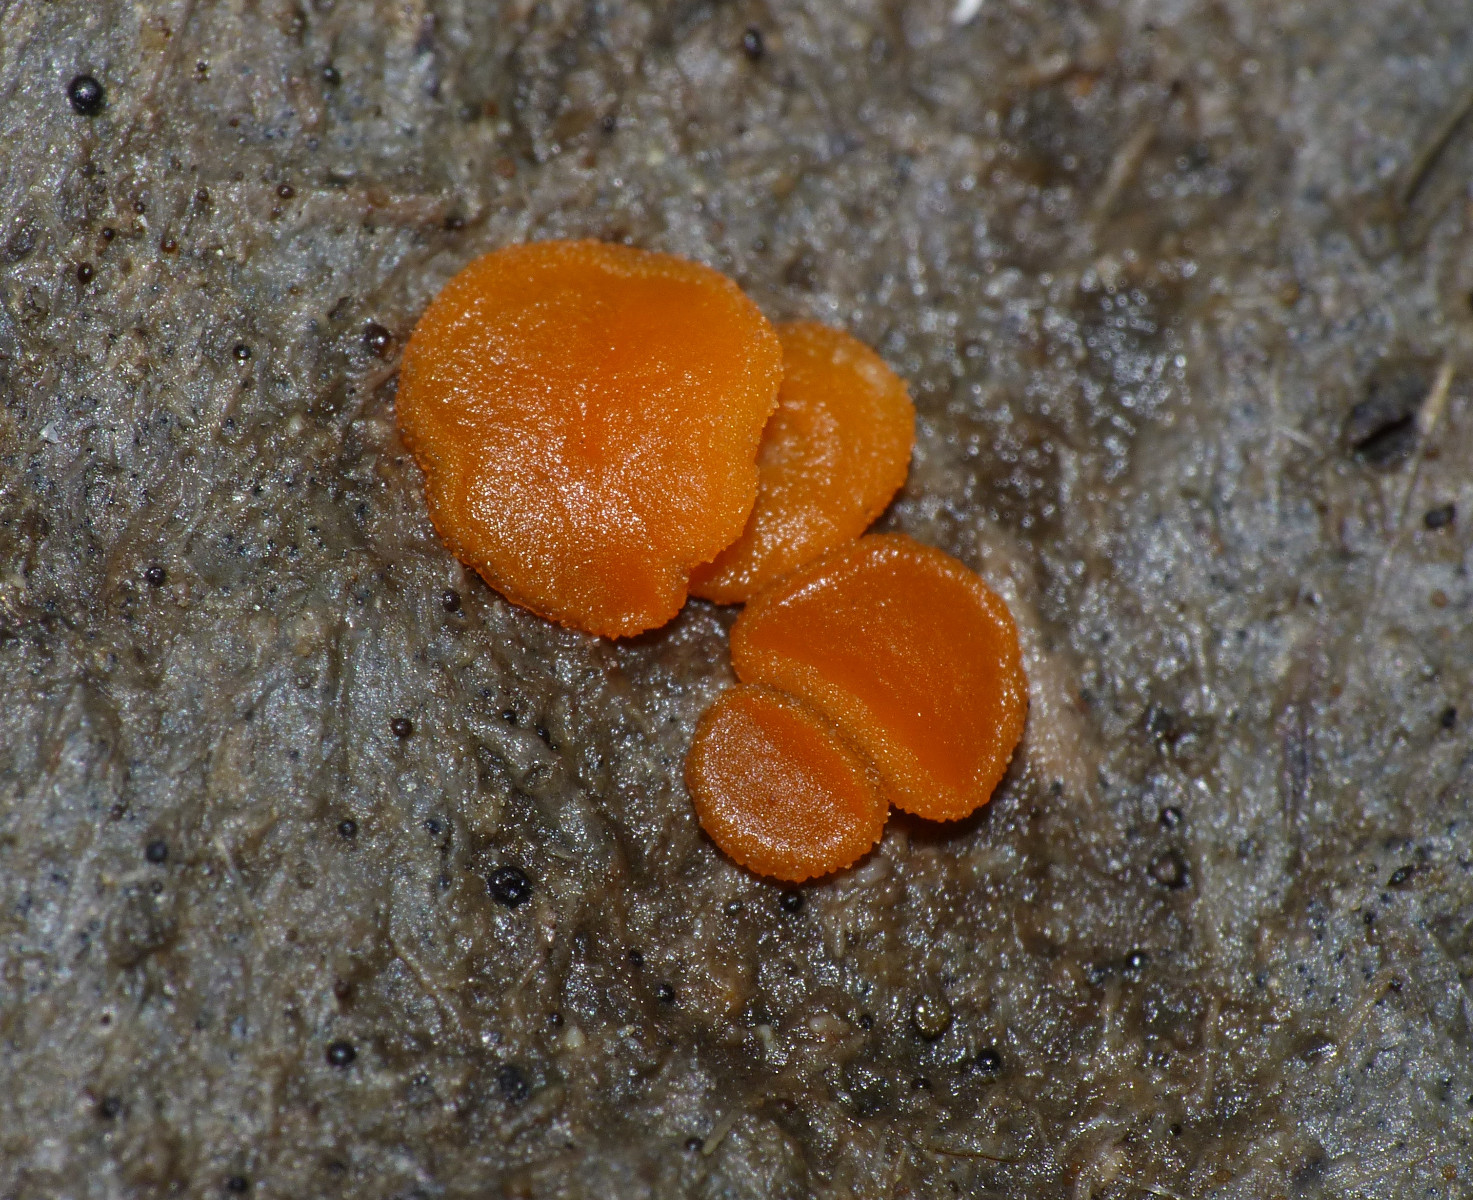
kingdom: Fungi
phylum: Ascomycota
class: Pezizomycetes
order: Pezizales
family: Pyronemataceae
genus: Cheilymenia
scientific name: Cheilymenia granulata
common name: møgbæger
